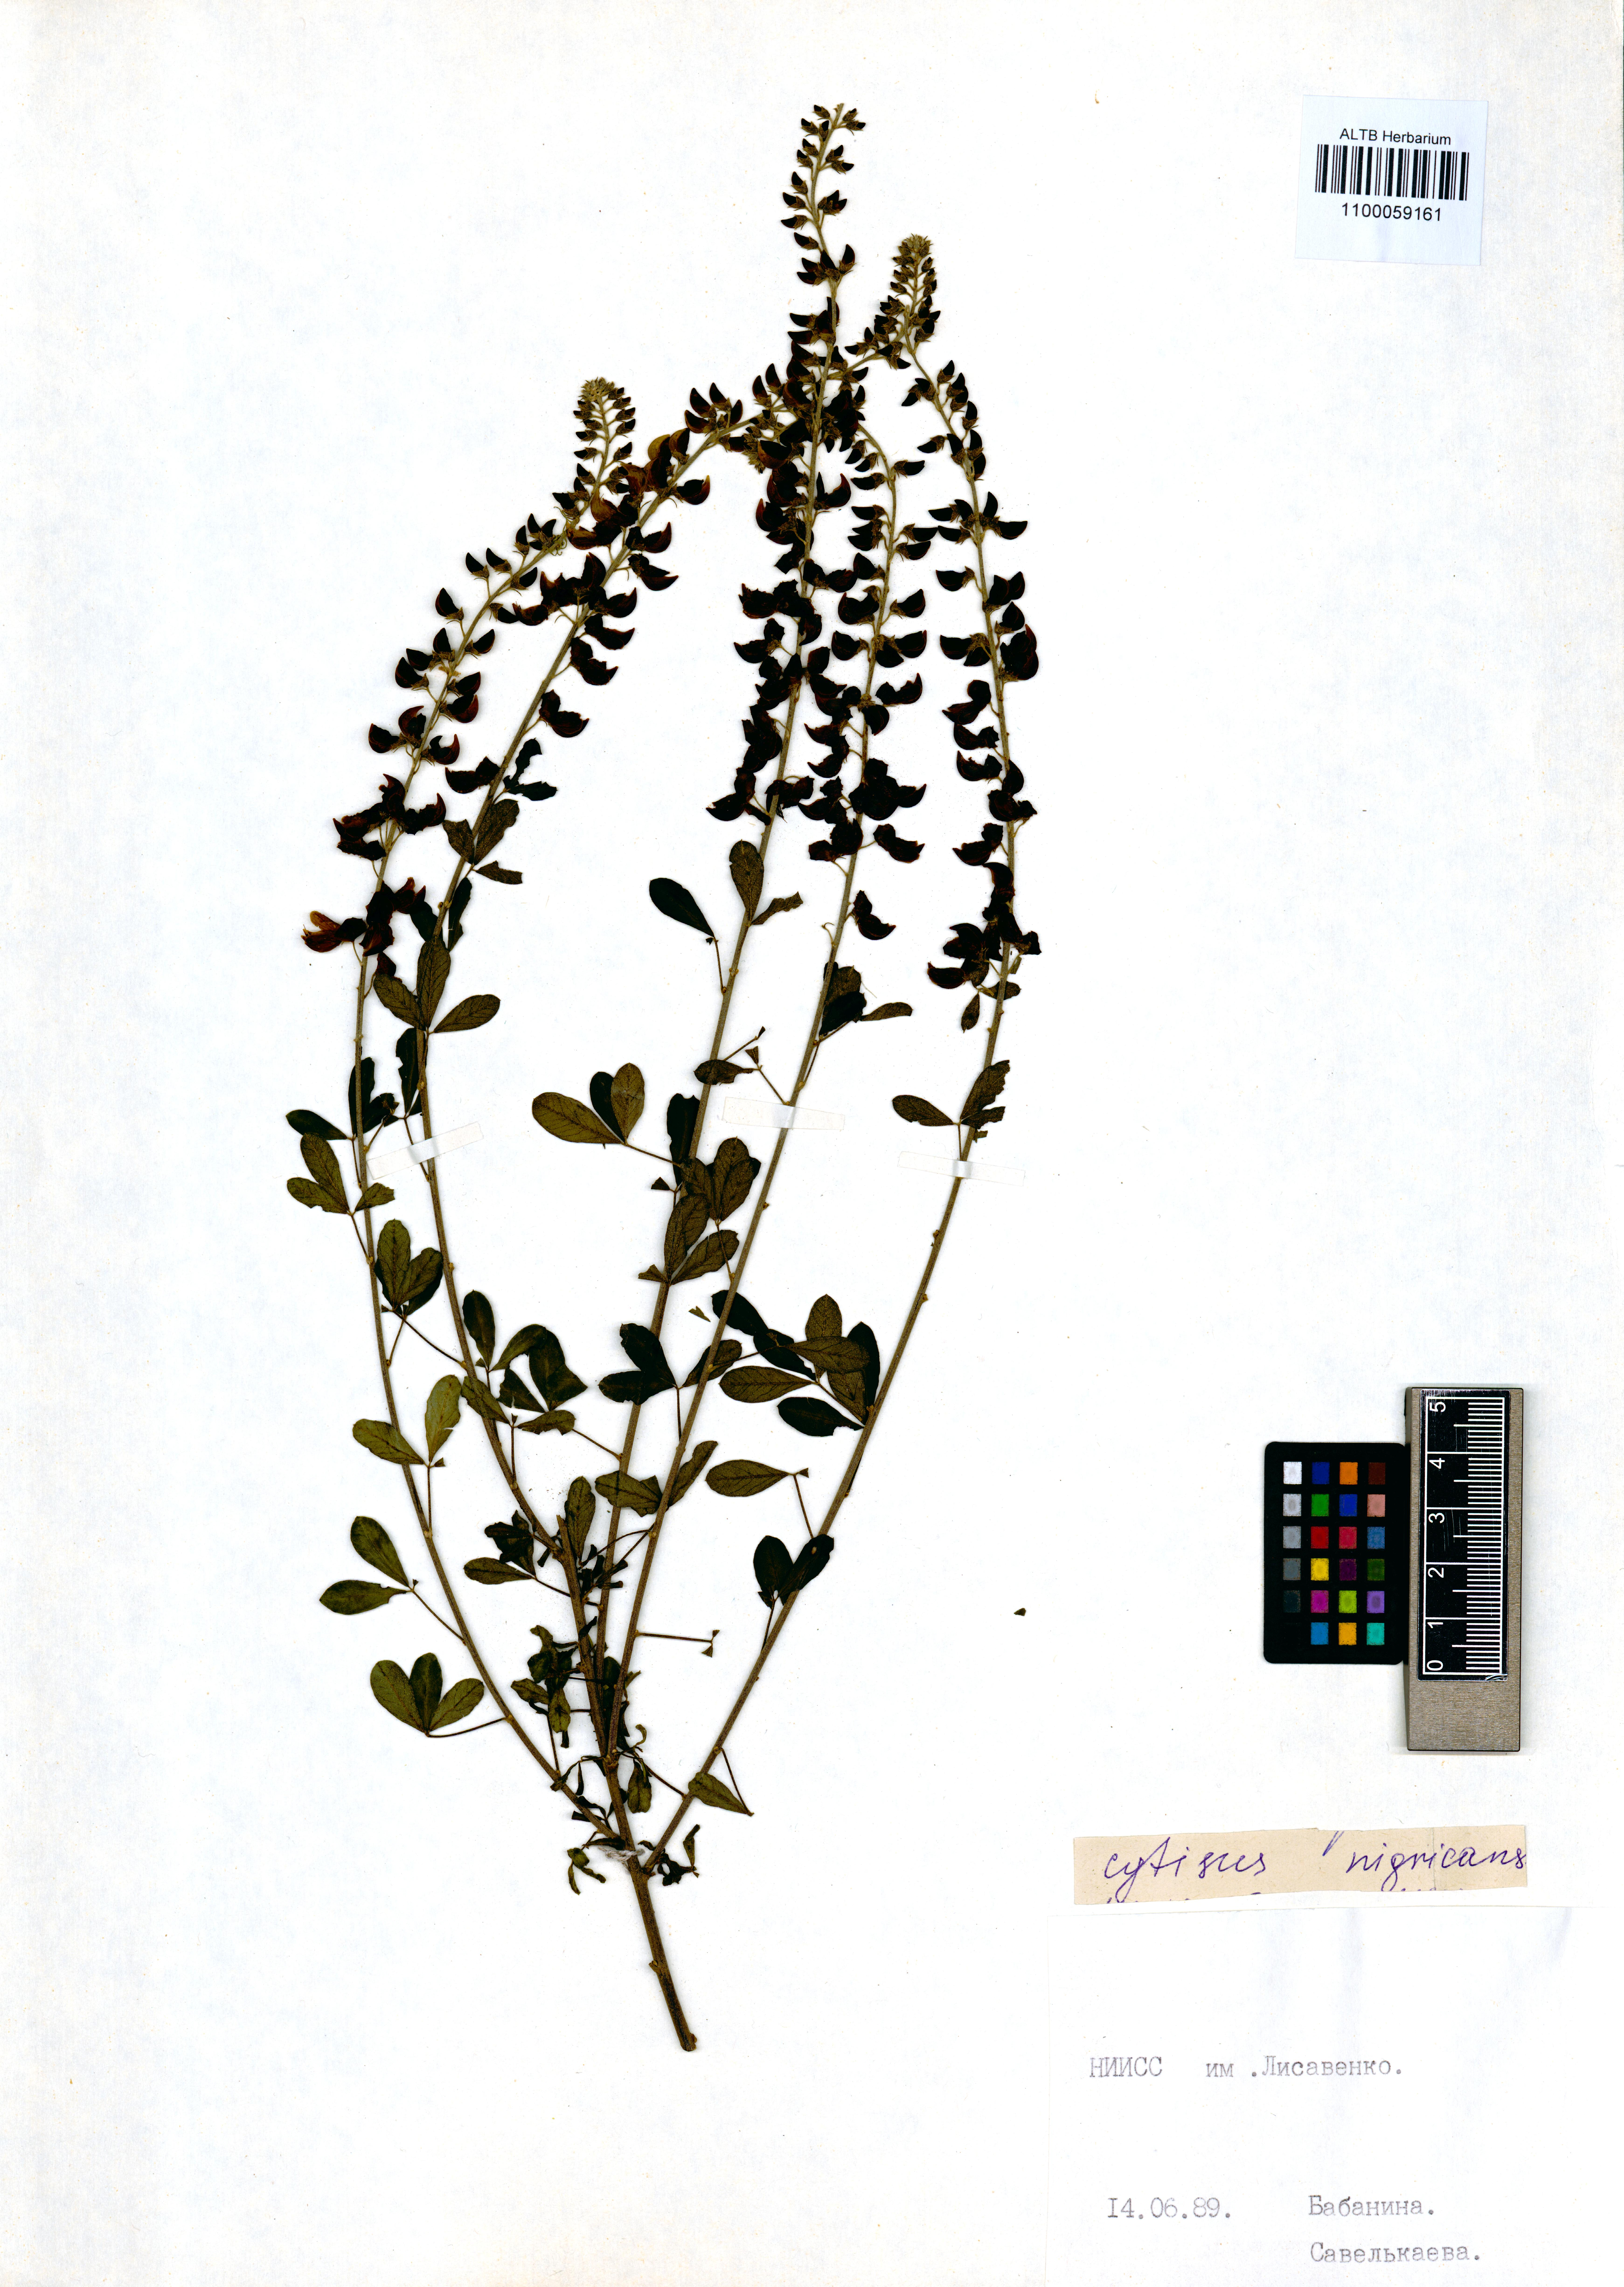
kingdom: Plantae
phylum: Tracheophyta
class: Magnoliopsida
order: Fabales
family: Fabaceae
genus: Cytisus
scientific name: Cytisus nigricans
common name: Black broom
